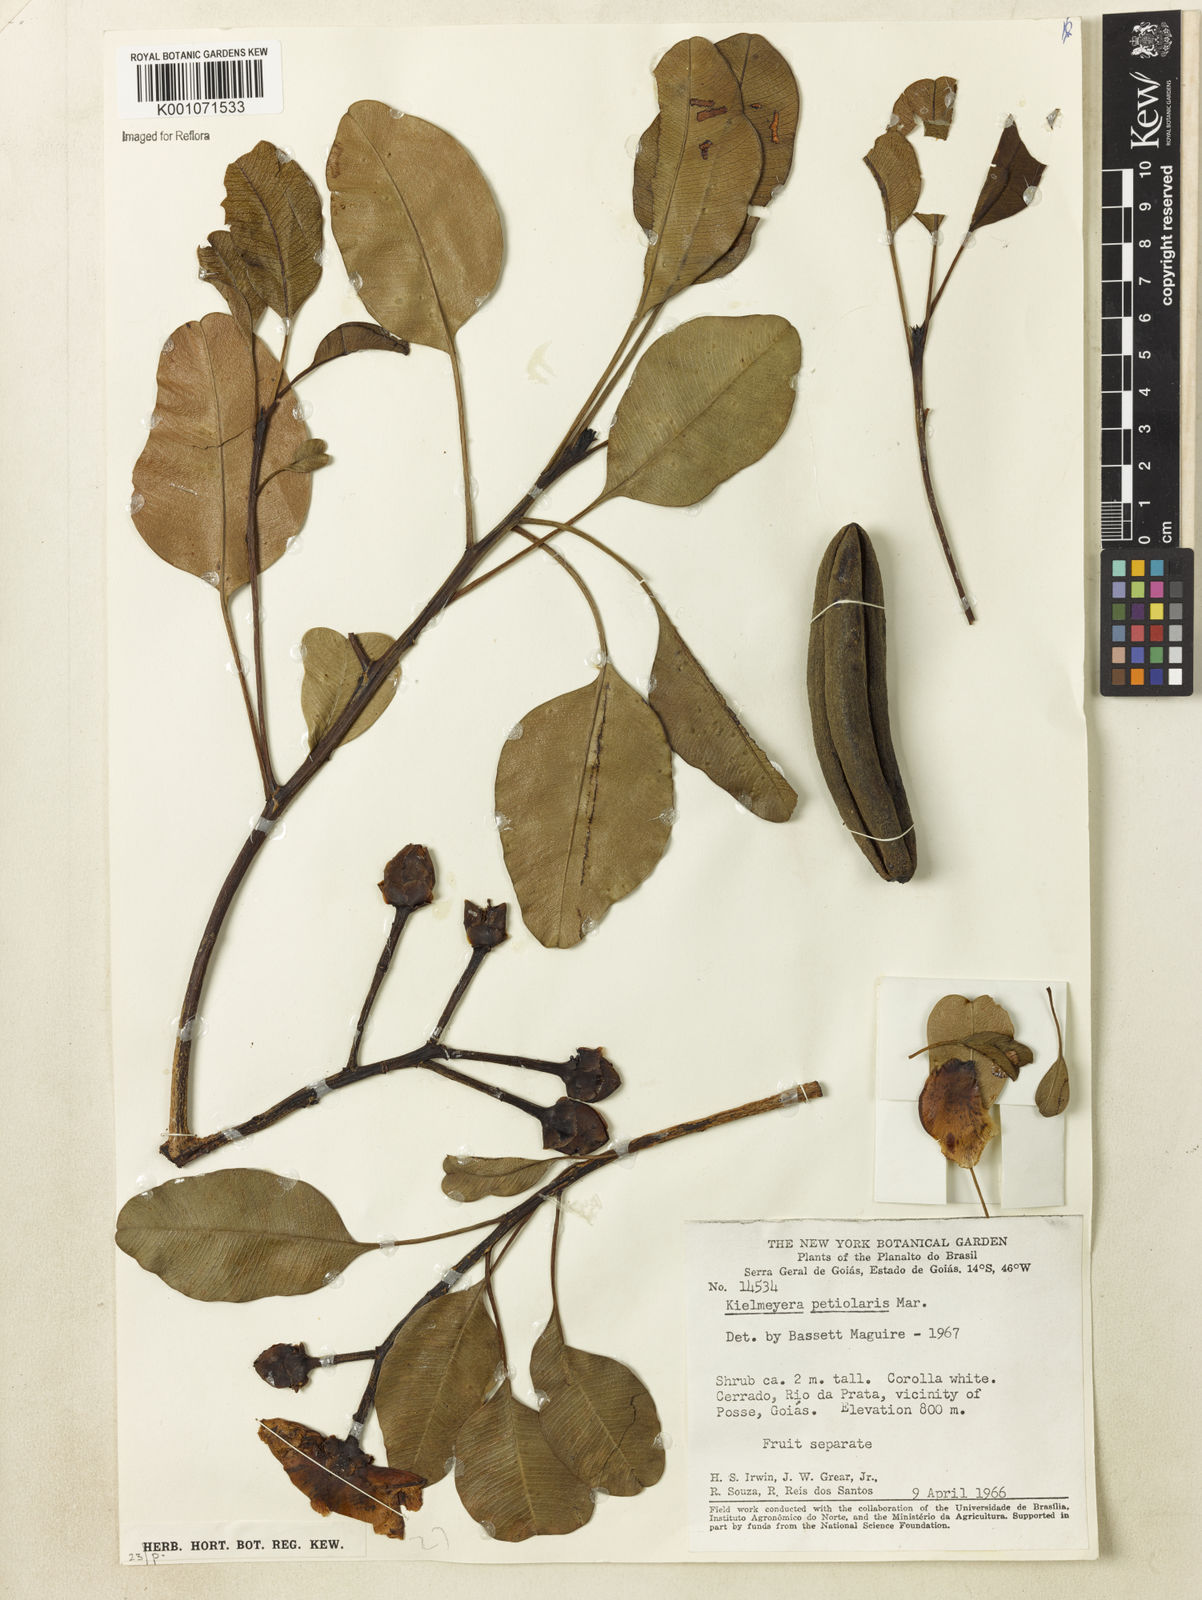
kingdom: Plantae
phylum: Tracheophyta
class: Magnoliopsida
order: Malpighiales
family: Calophyllaceae
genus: Kielmeyera
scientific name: Kielmeyera petiolaris
